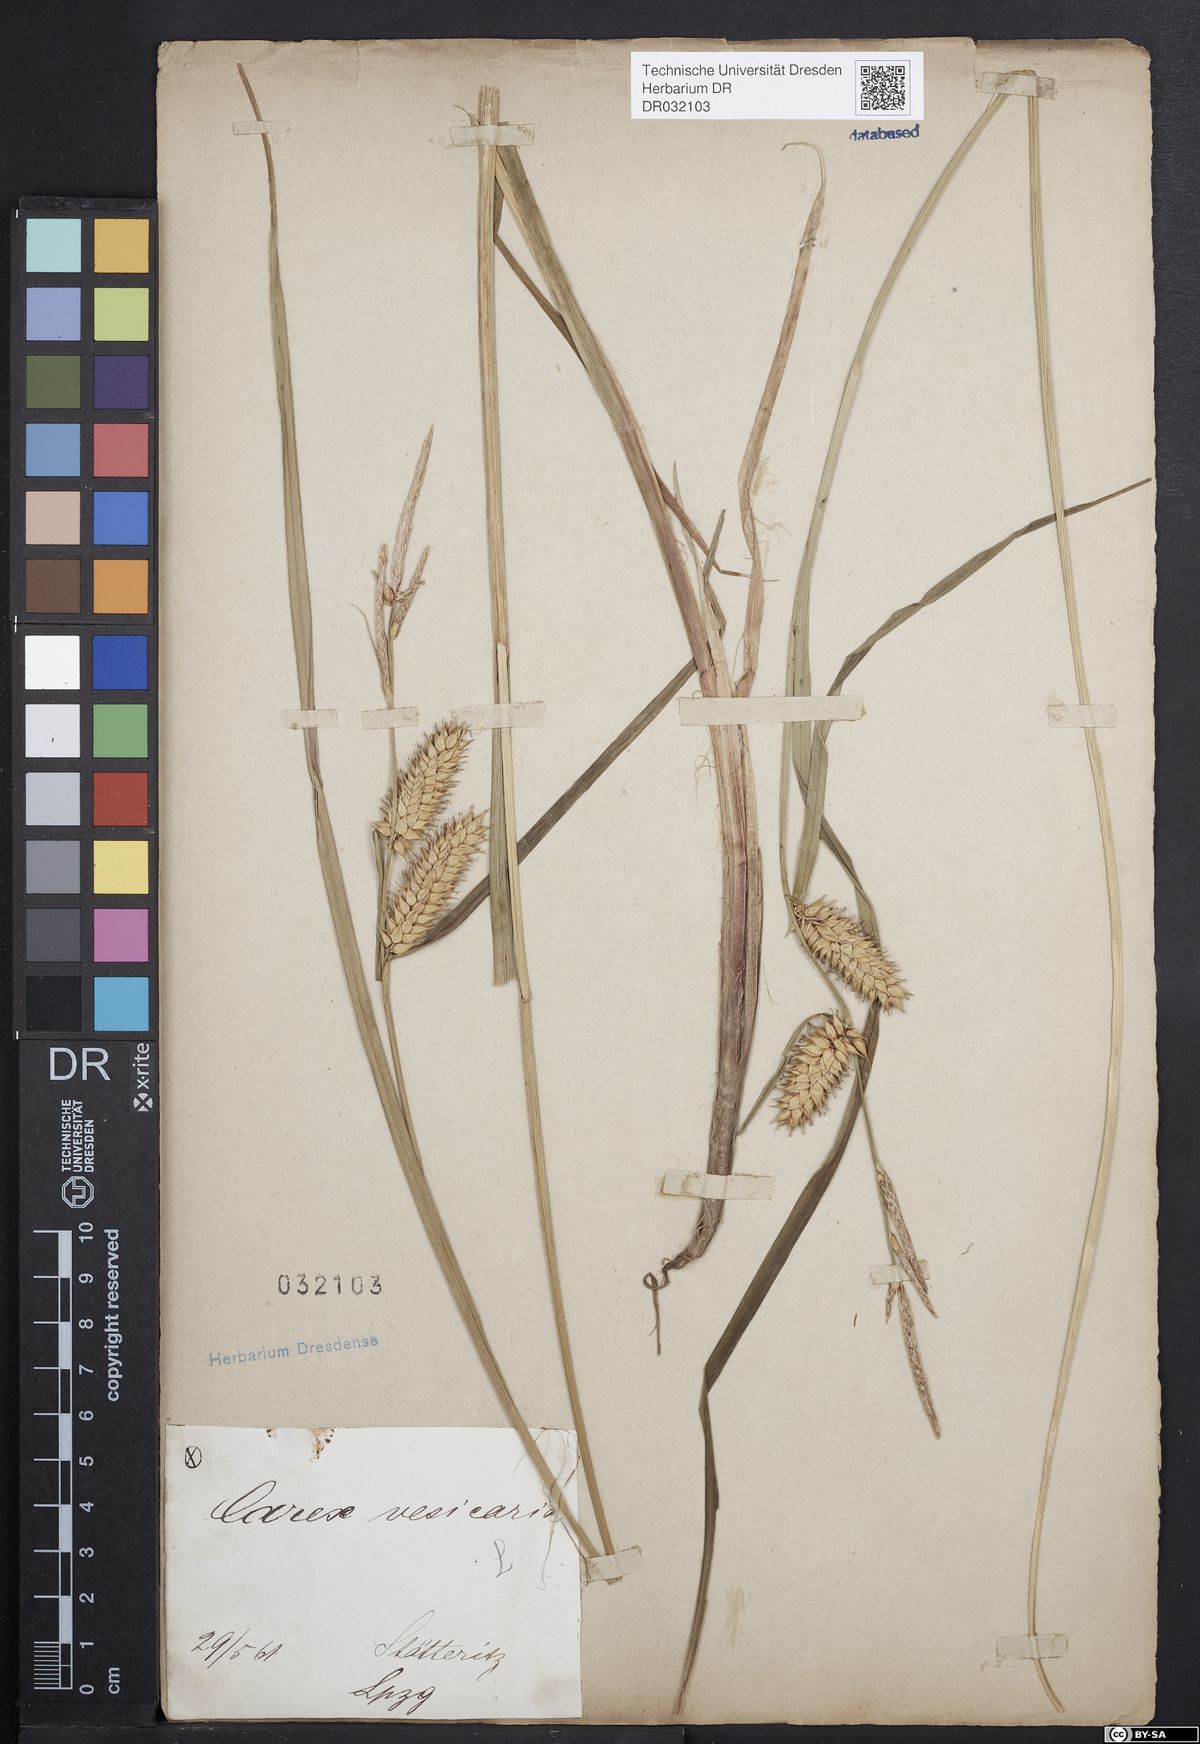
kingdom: Plantae
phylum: Tracheophyta
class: Liliopsida
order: Poales
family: Cyperaceae
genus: Carex
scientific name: Carex vesicaria
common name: Bladder-sedge
